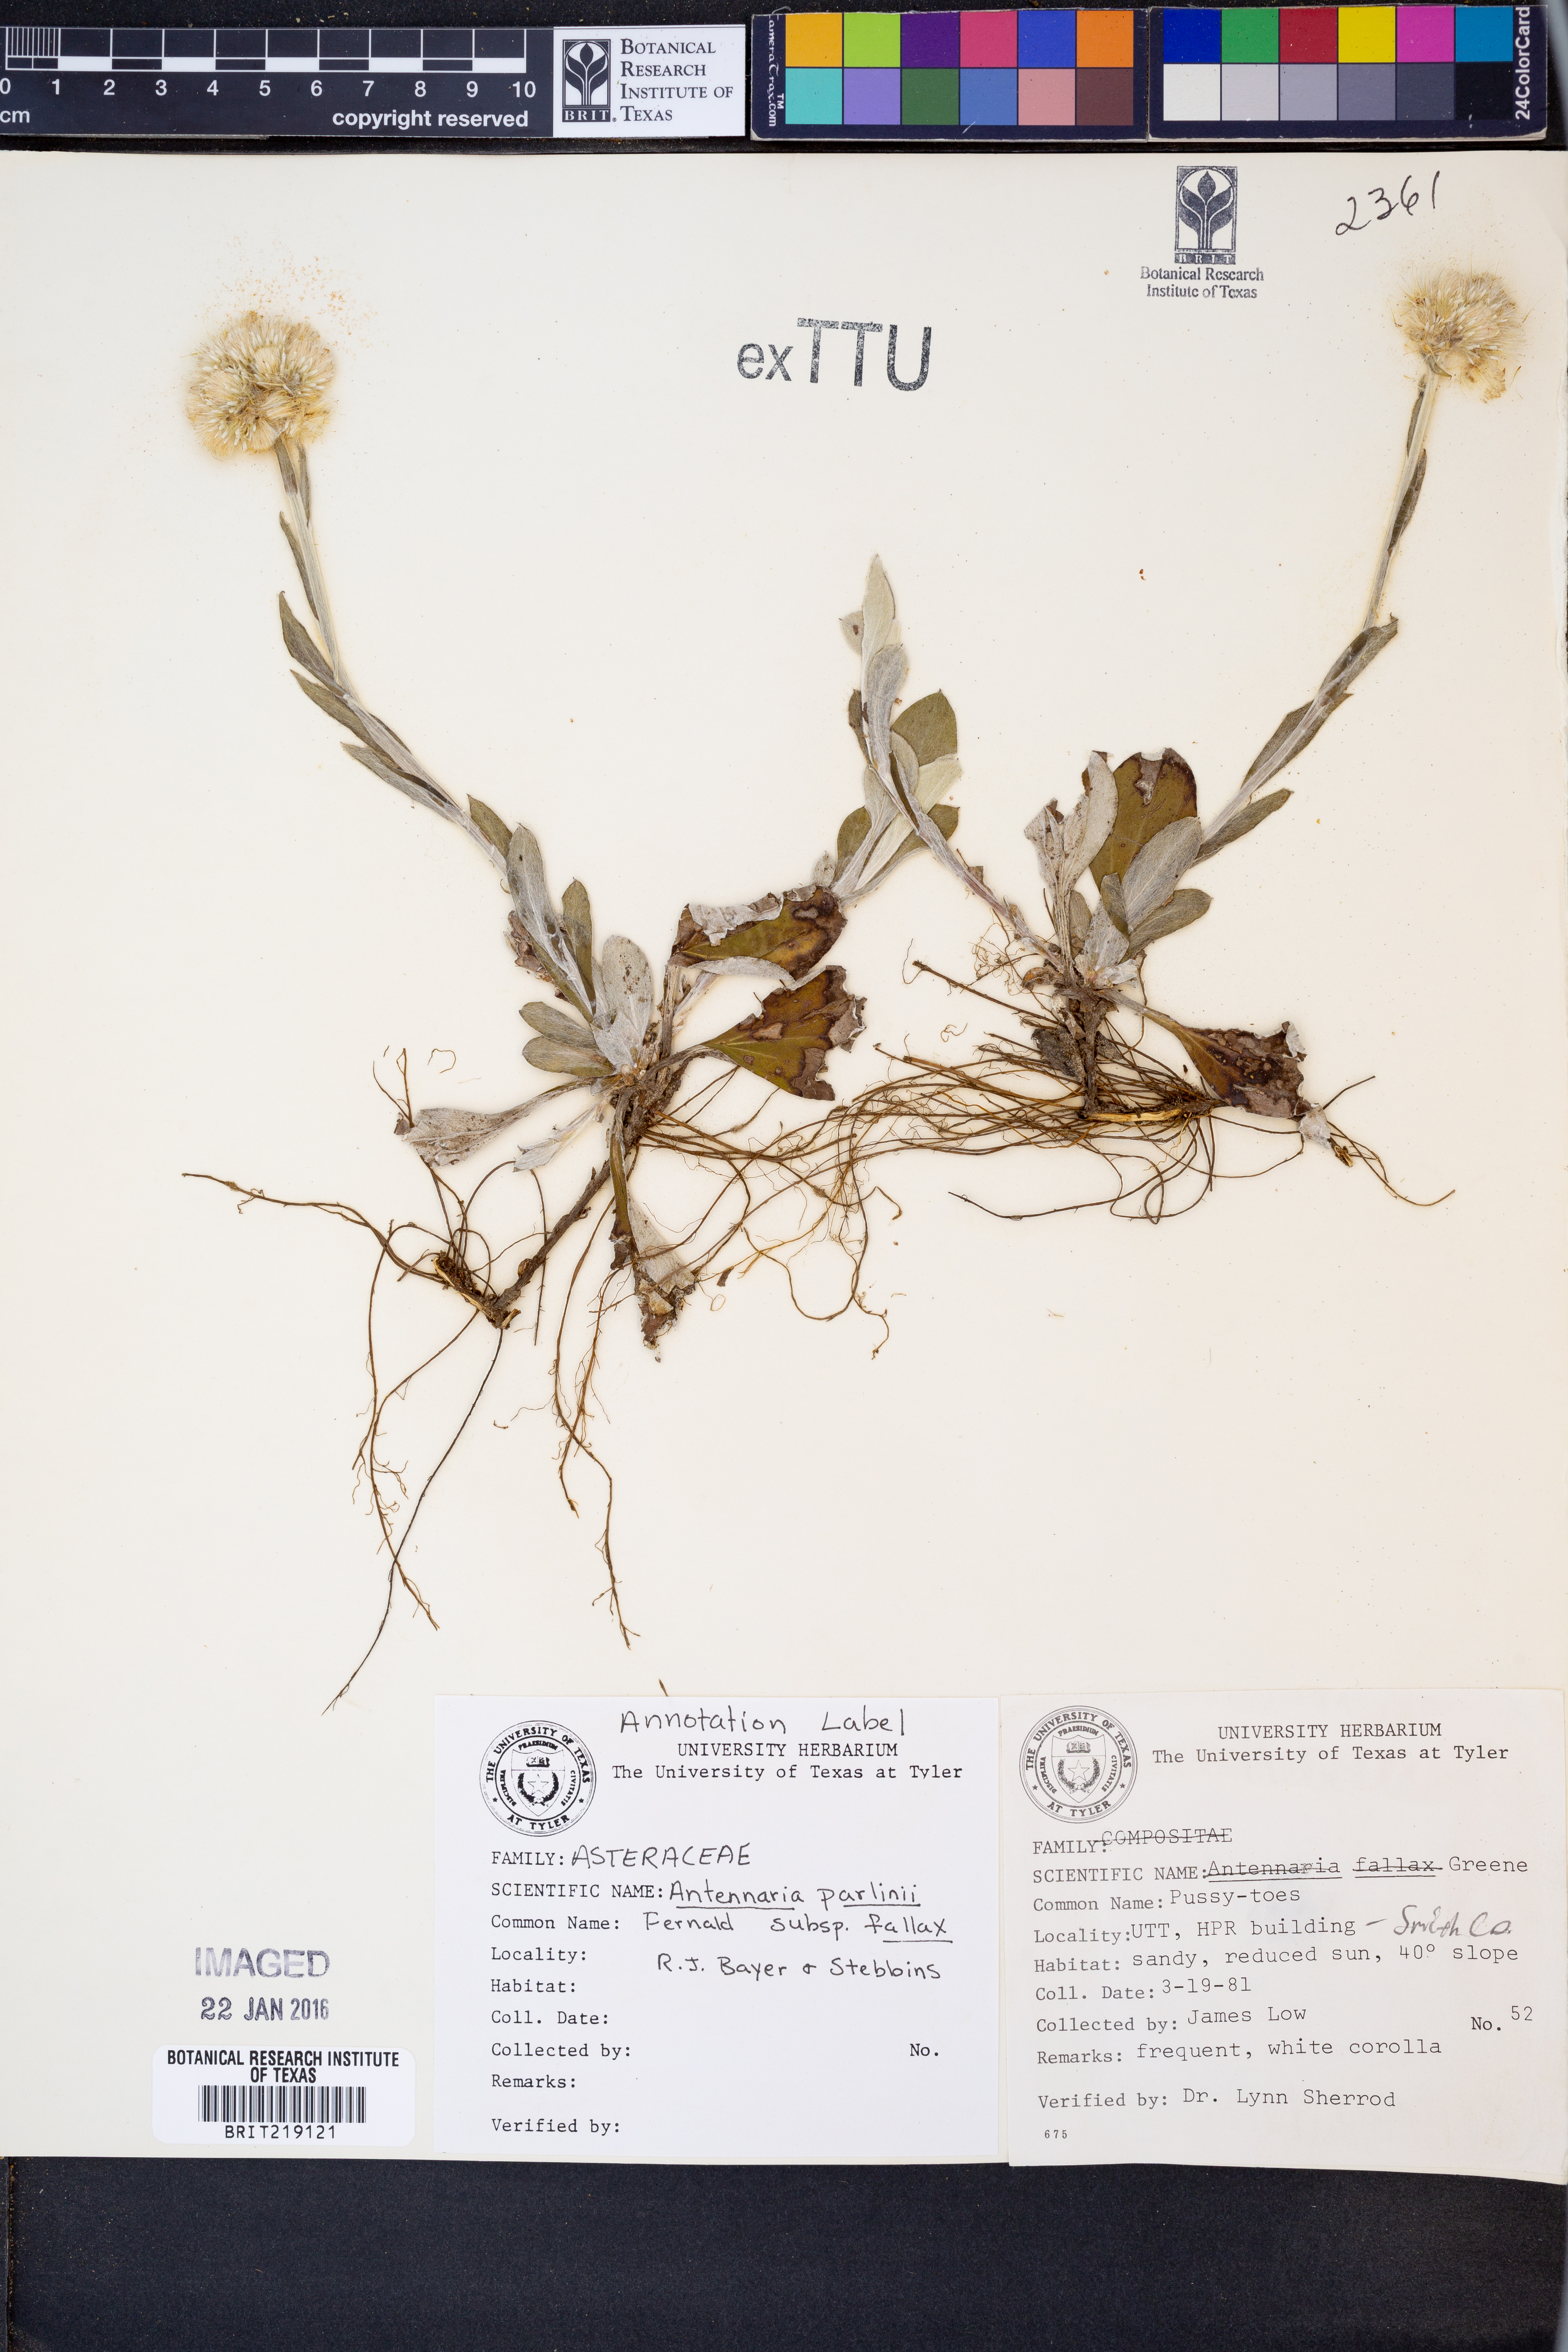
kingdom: Plantae
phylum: Tracheophyta
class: Magnoliopsida
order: Asterales
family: Asteraceae
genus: Antennaria
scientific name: Antennaria parlinii
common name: Parlin's pussytoes
